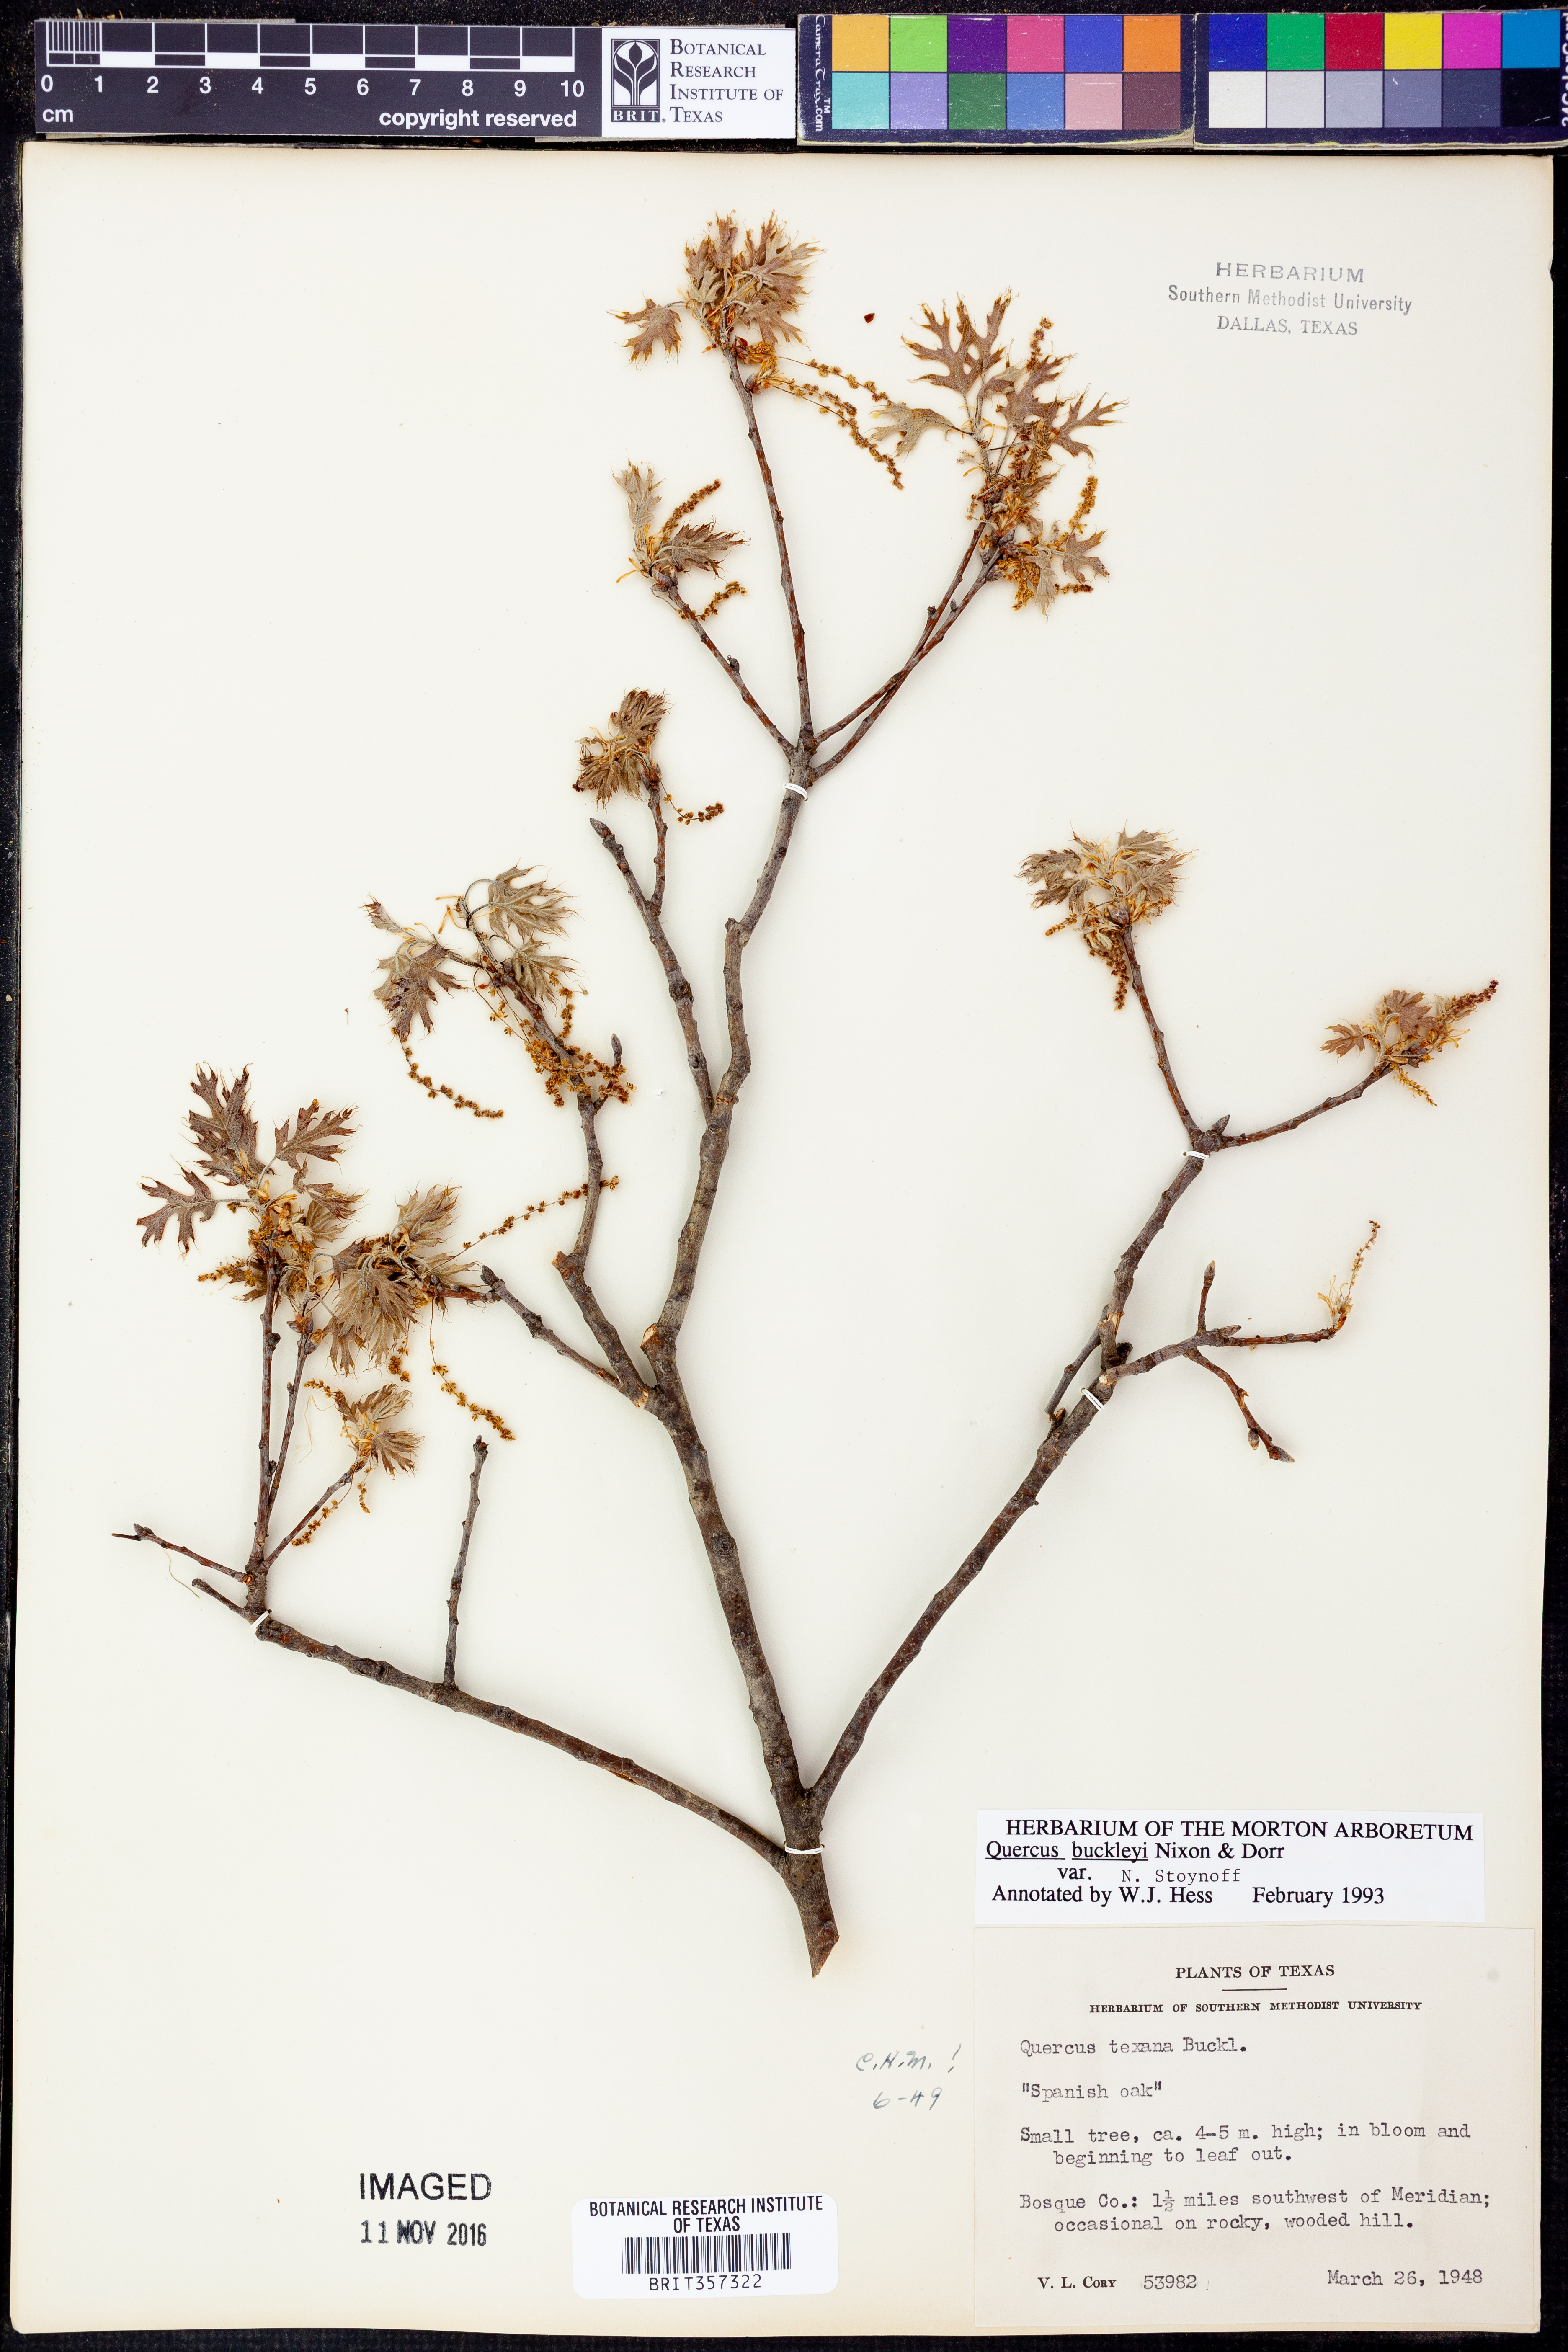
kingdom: Plantae
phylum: Tracheophyta
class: Magnoliopsida
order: Fagales
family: Fagaceae
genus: Quercus
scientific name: Quercus buckleyi
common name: Buckley oak
